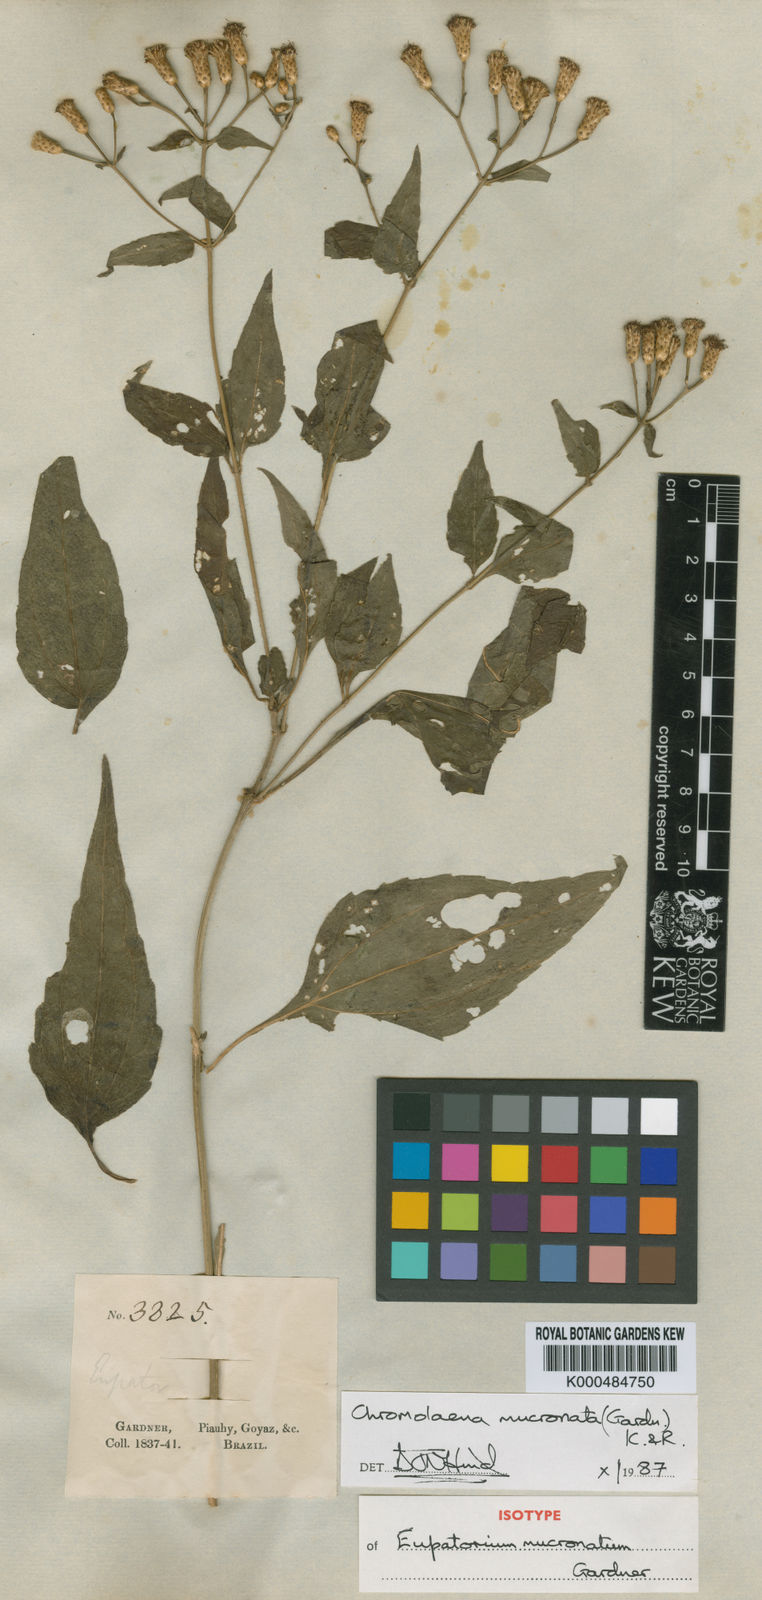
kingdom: Plantae
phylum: Tracheophyta
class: Magnoliopsida
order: Asterales
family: Asteraceae
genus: Chromolaena
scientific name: Chromolaena mucronata
